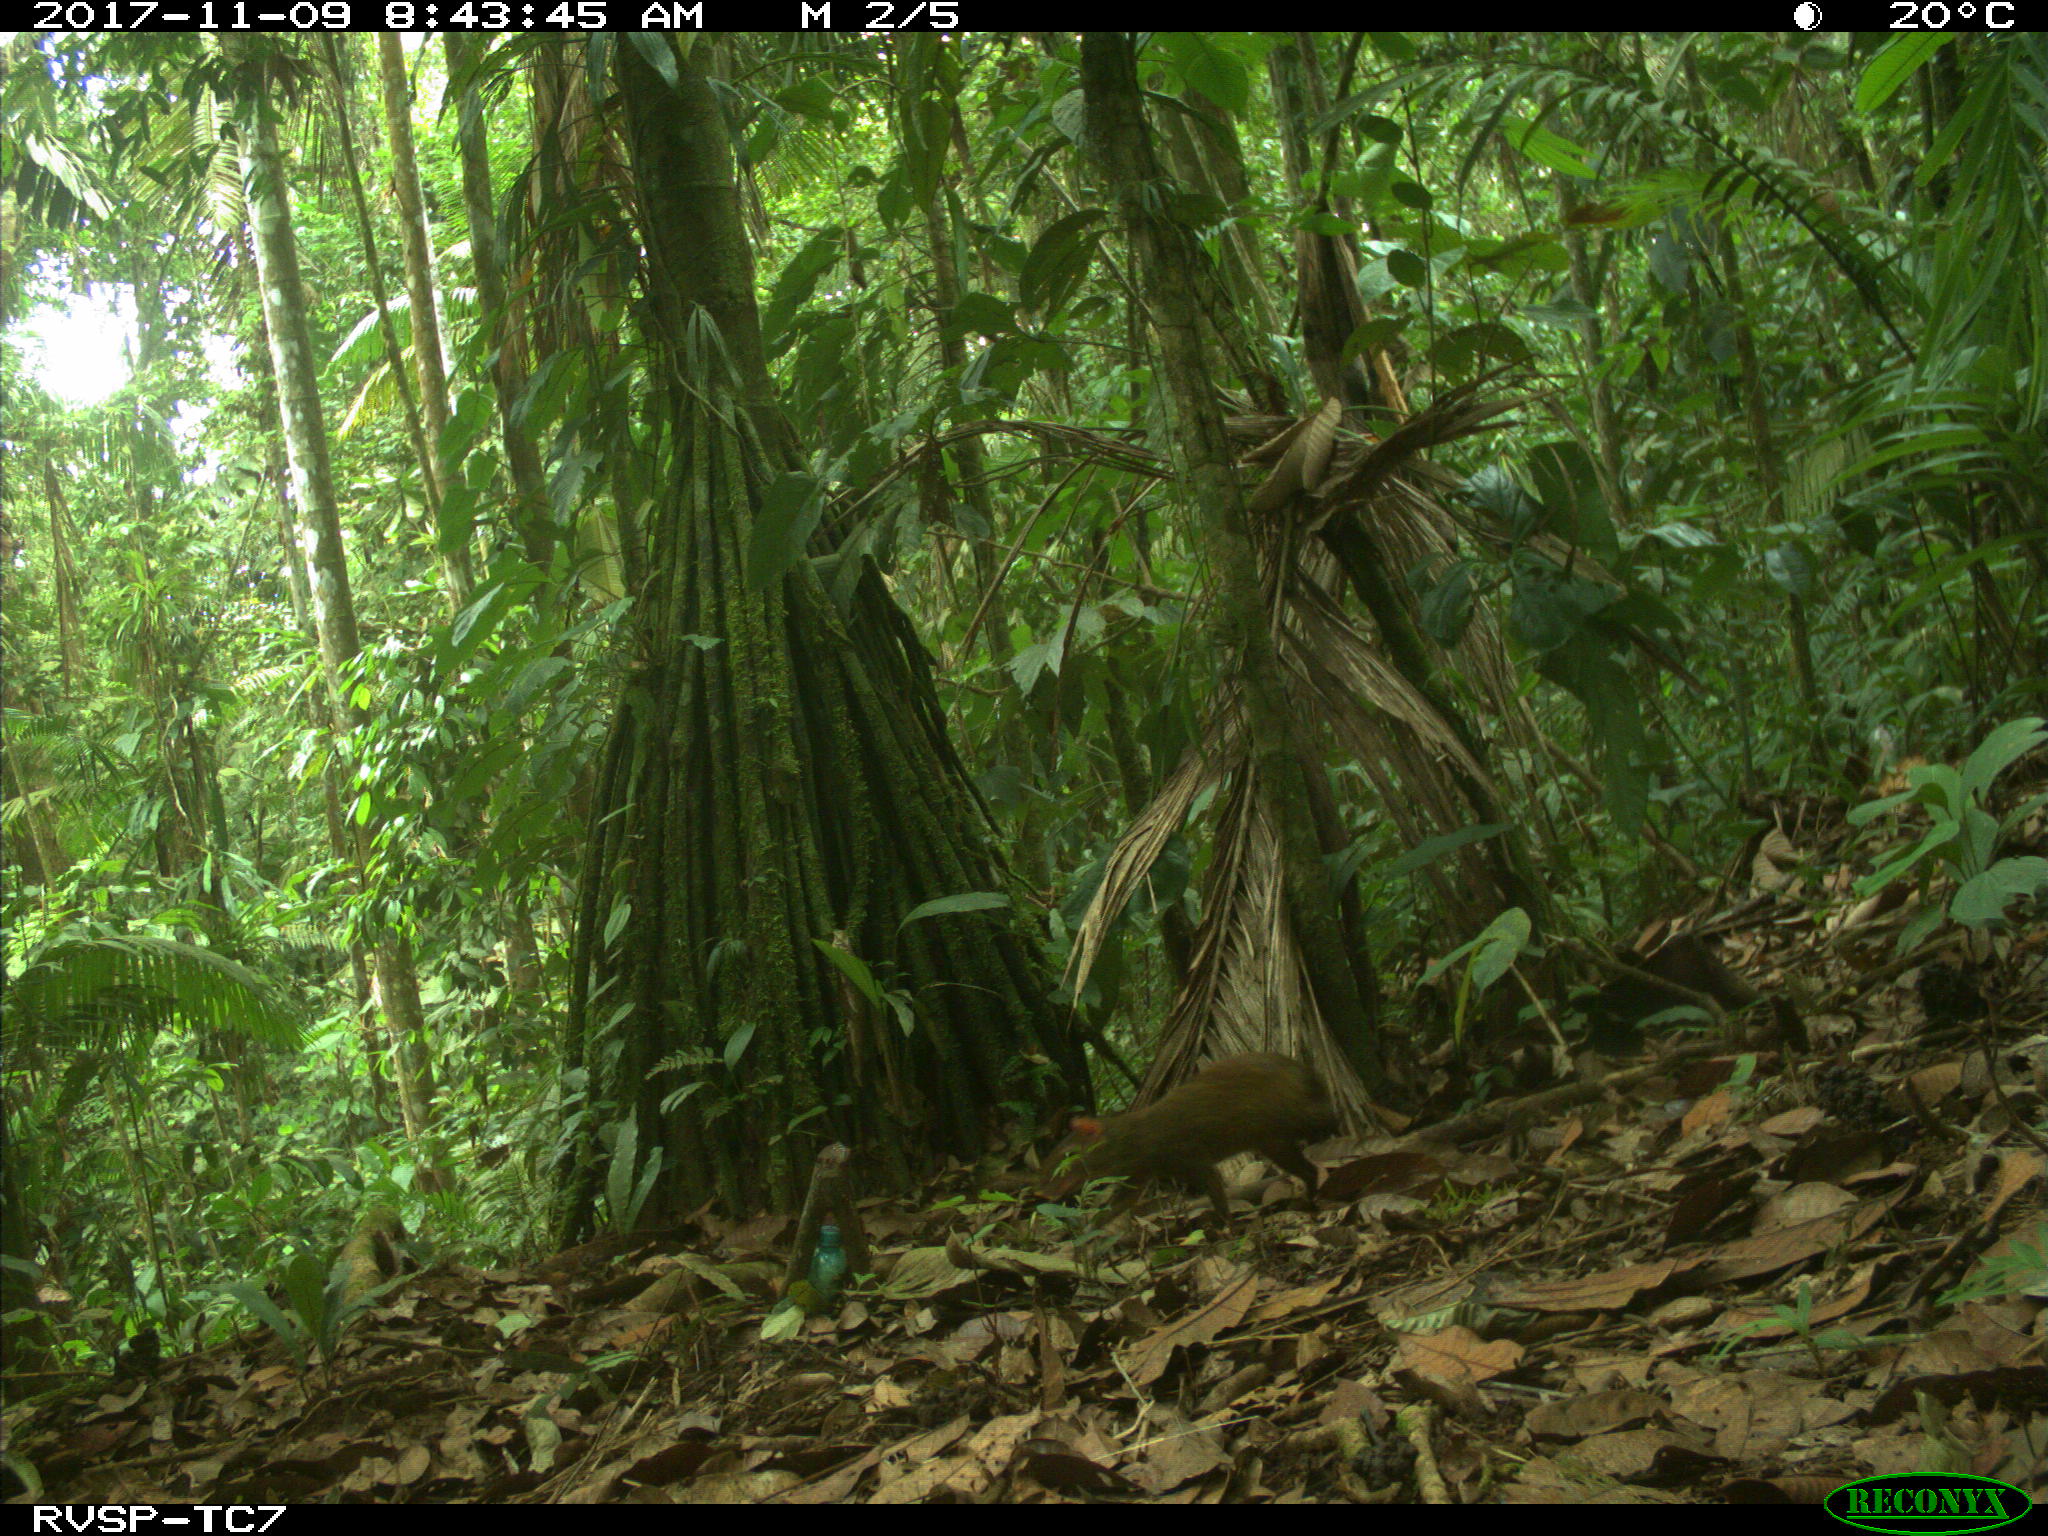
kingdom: Animalia
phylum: Chordata
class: Mammalia
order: Rodentia
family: Dasyproctidae
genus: Dasyprocta
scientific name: Dasyprocta punctata
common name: Central american agouti
